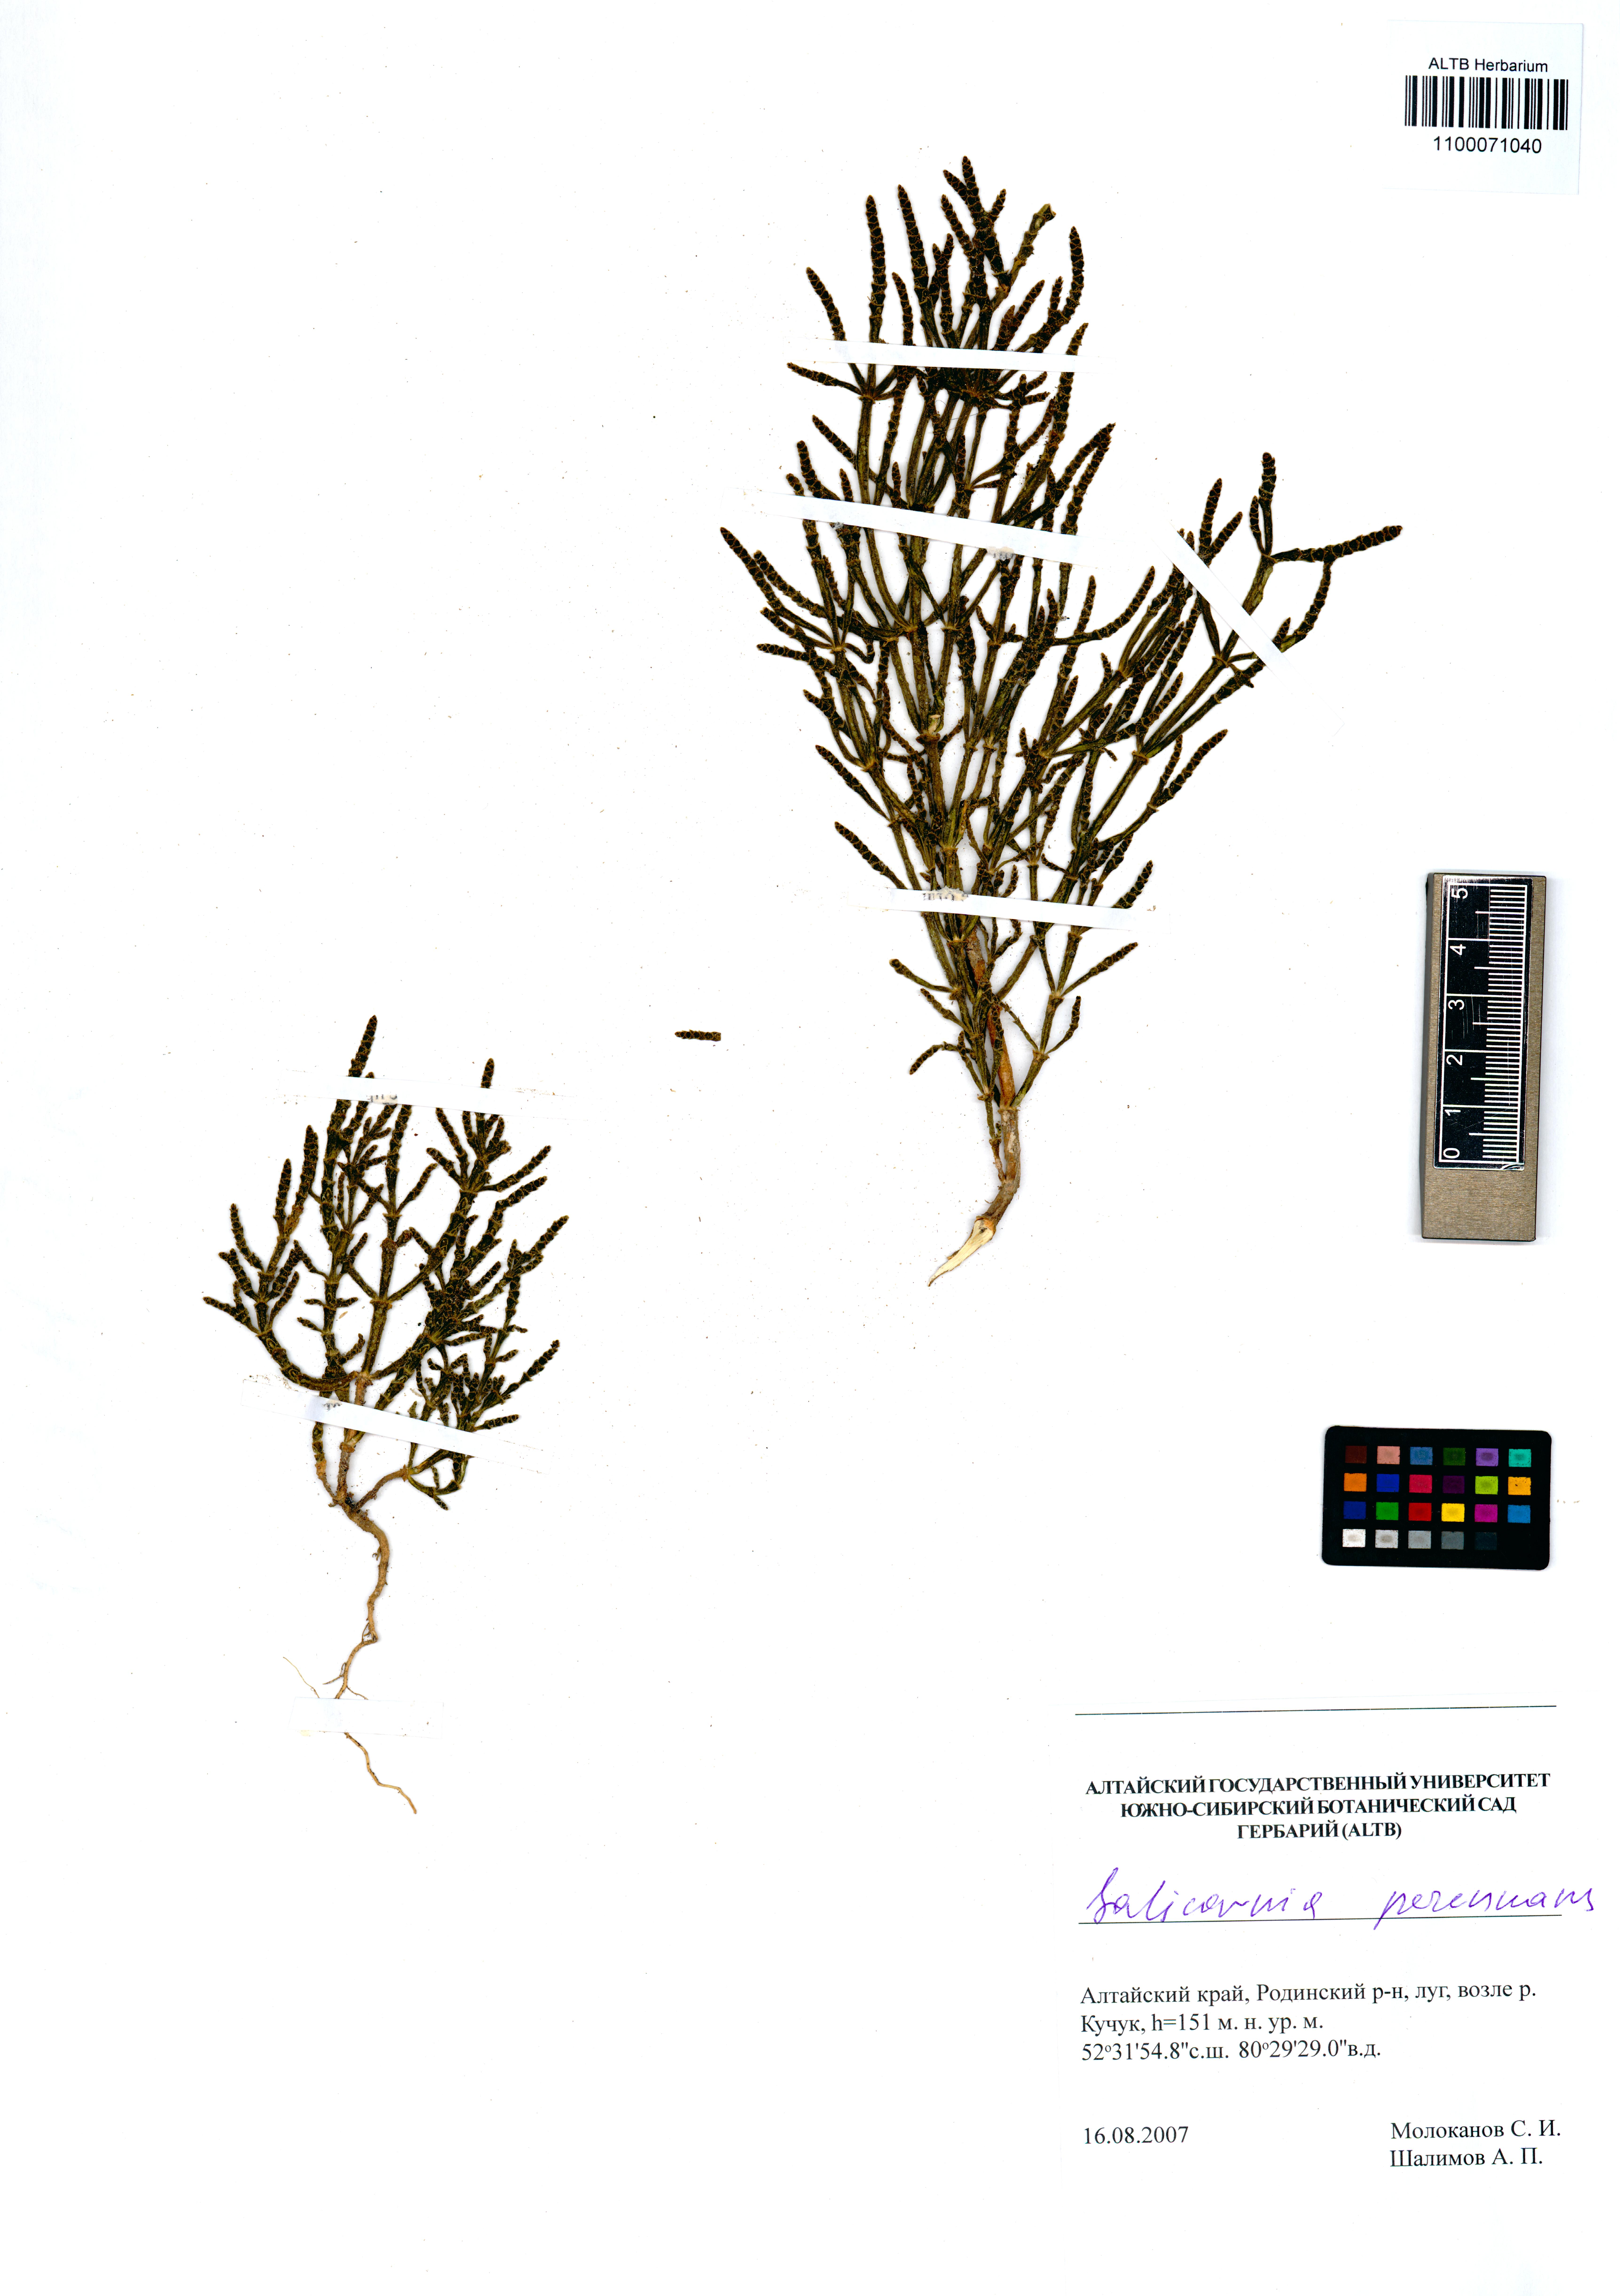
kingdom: Plantae
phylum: Tracheophyta
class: Magnoliopsida
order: Caryophyllales
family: Amaranthaceae
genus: Salicornia
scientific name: Salicornia perennans
